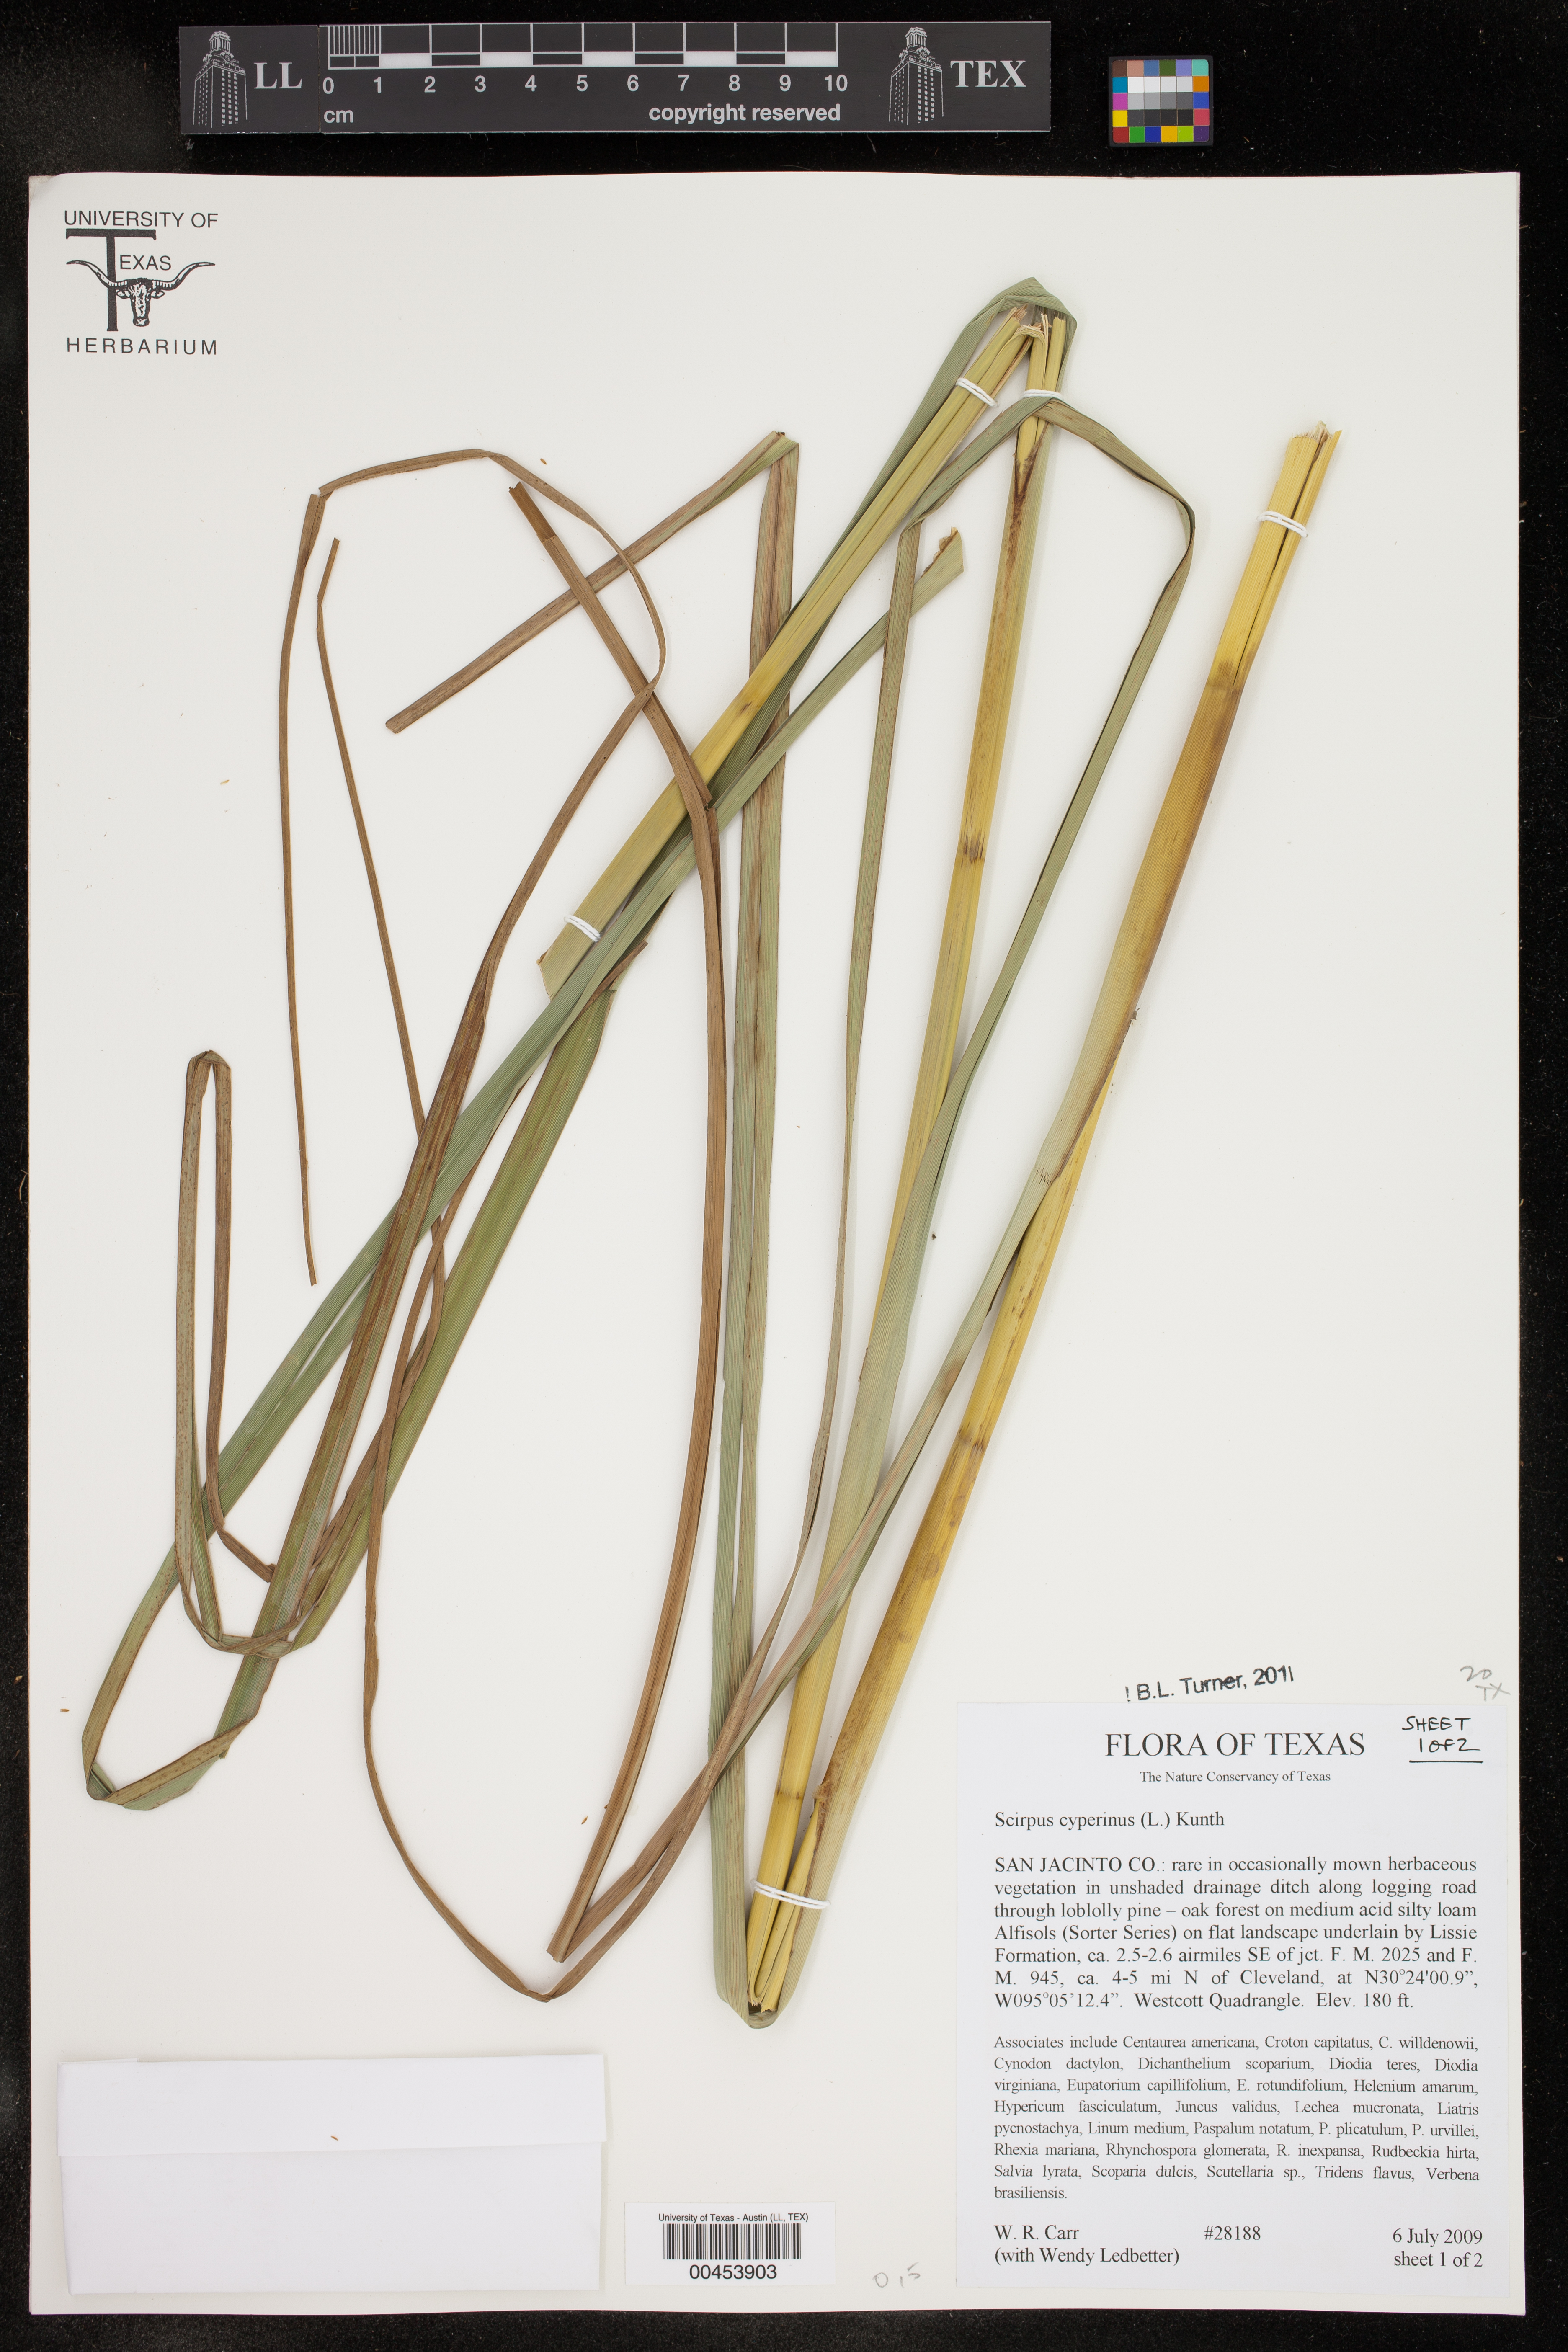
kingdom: Plantae
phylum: Tracheophyta
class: Liliopsida
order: Poales
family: Cyperaceae
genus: Scirpus
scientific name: Scirpus cyperinus
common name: Black-sheathed bulrush
